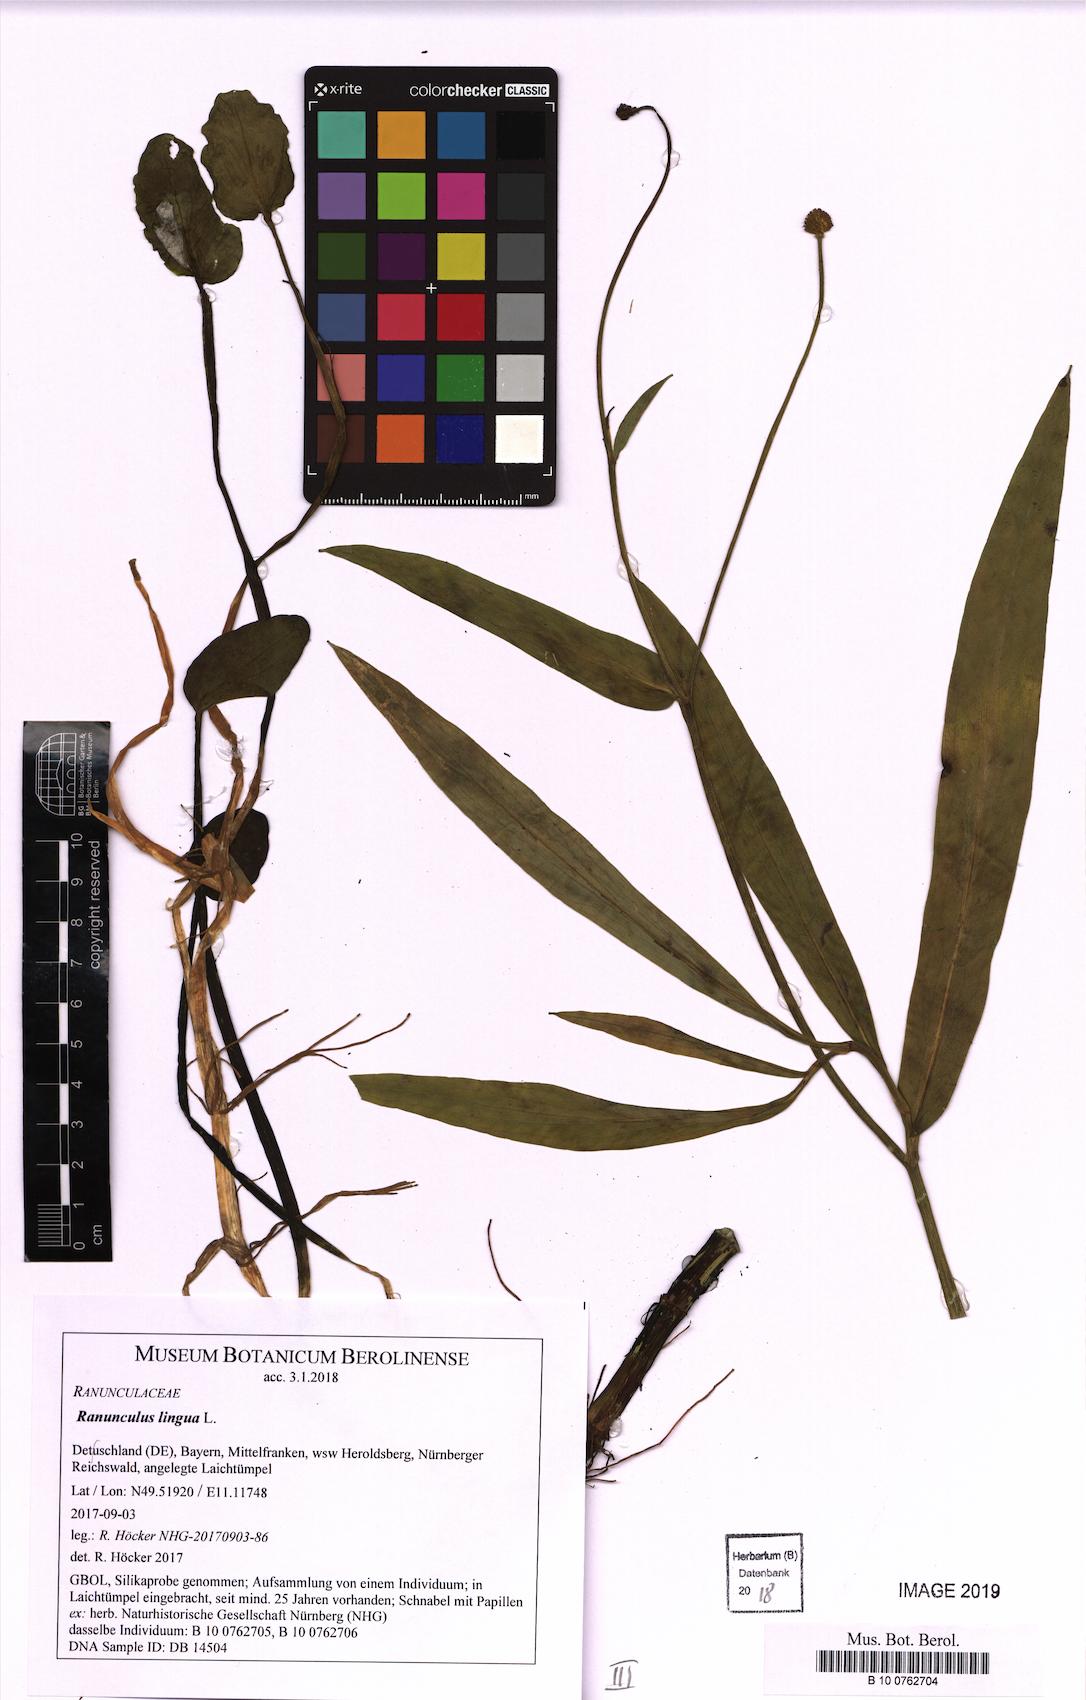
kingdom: Plantae
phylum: Tracheophyta
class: Magnoliopsida
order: Ranunculales
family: Ranunculaceae
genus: Ranunculus
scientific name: Ranunculus lingua
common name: Greater spearwort
